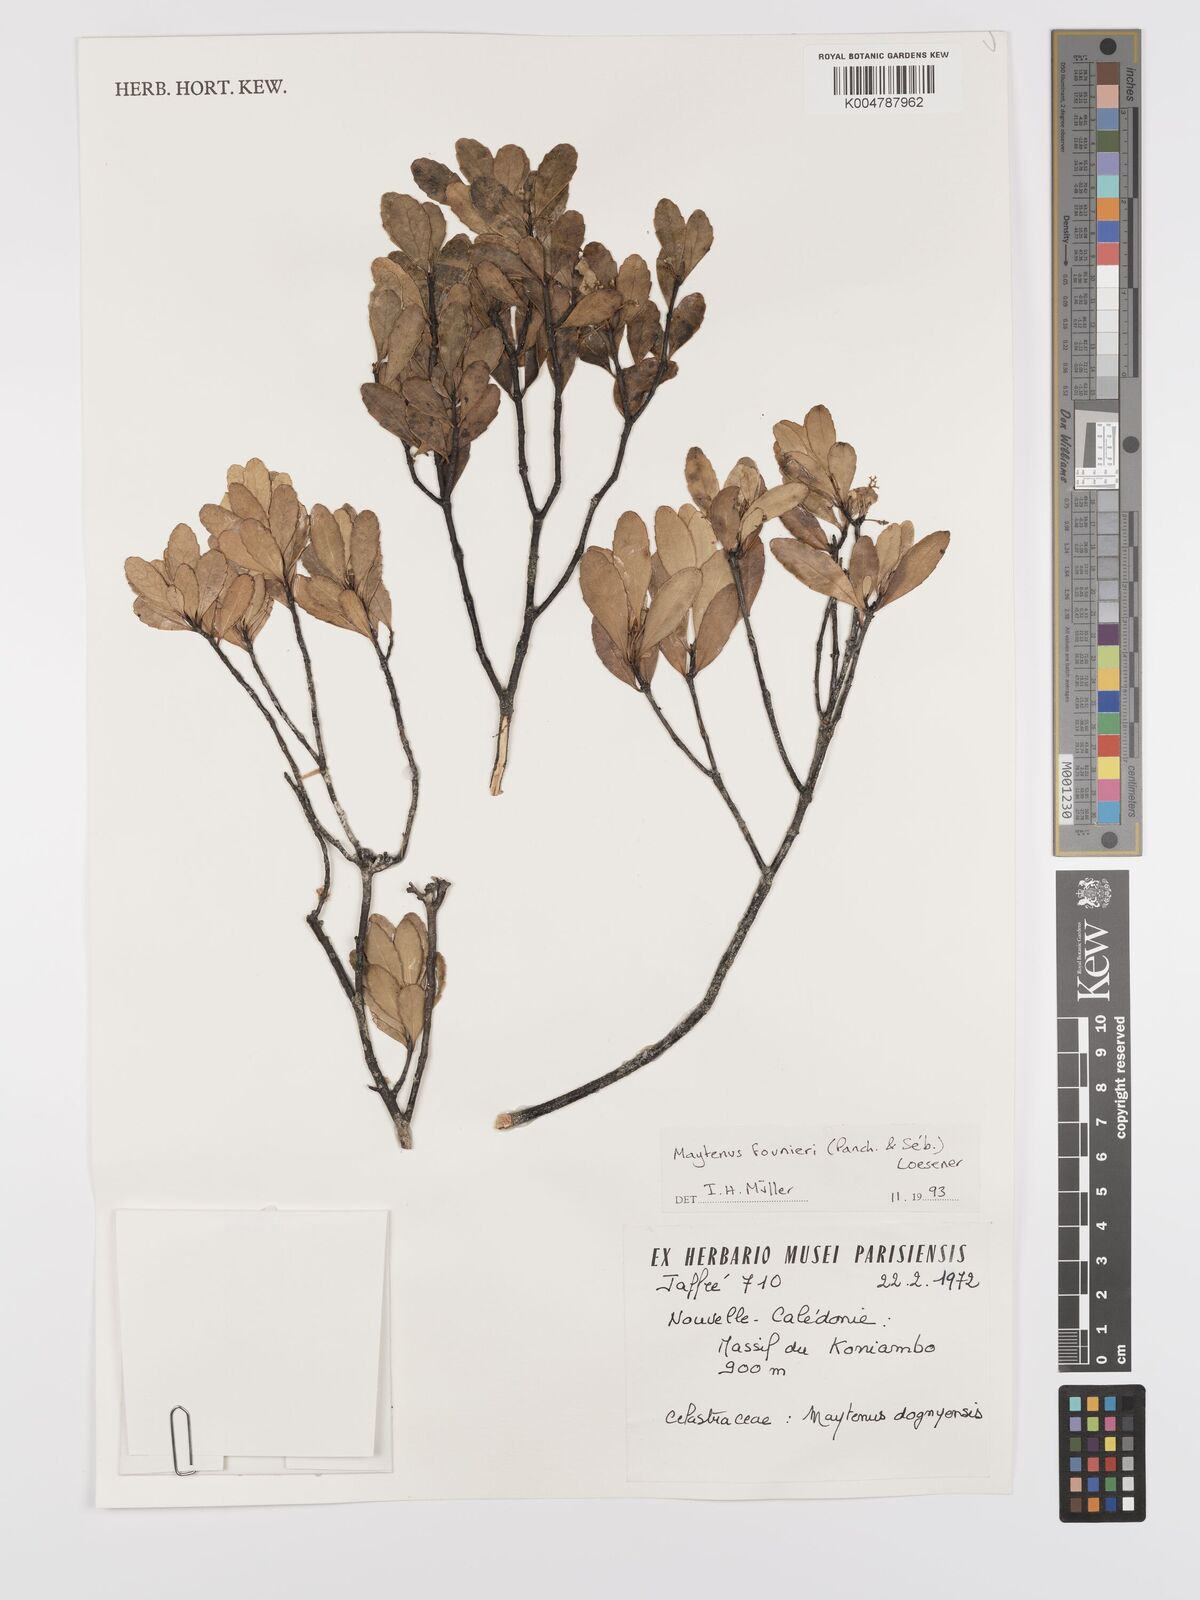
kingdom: Plantae
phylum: Tracheophyta
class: Magnoliopsida
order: Celastrales
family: Celastraceae
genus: Denhamia
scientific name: Denhamia
